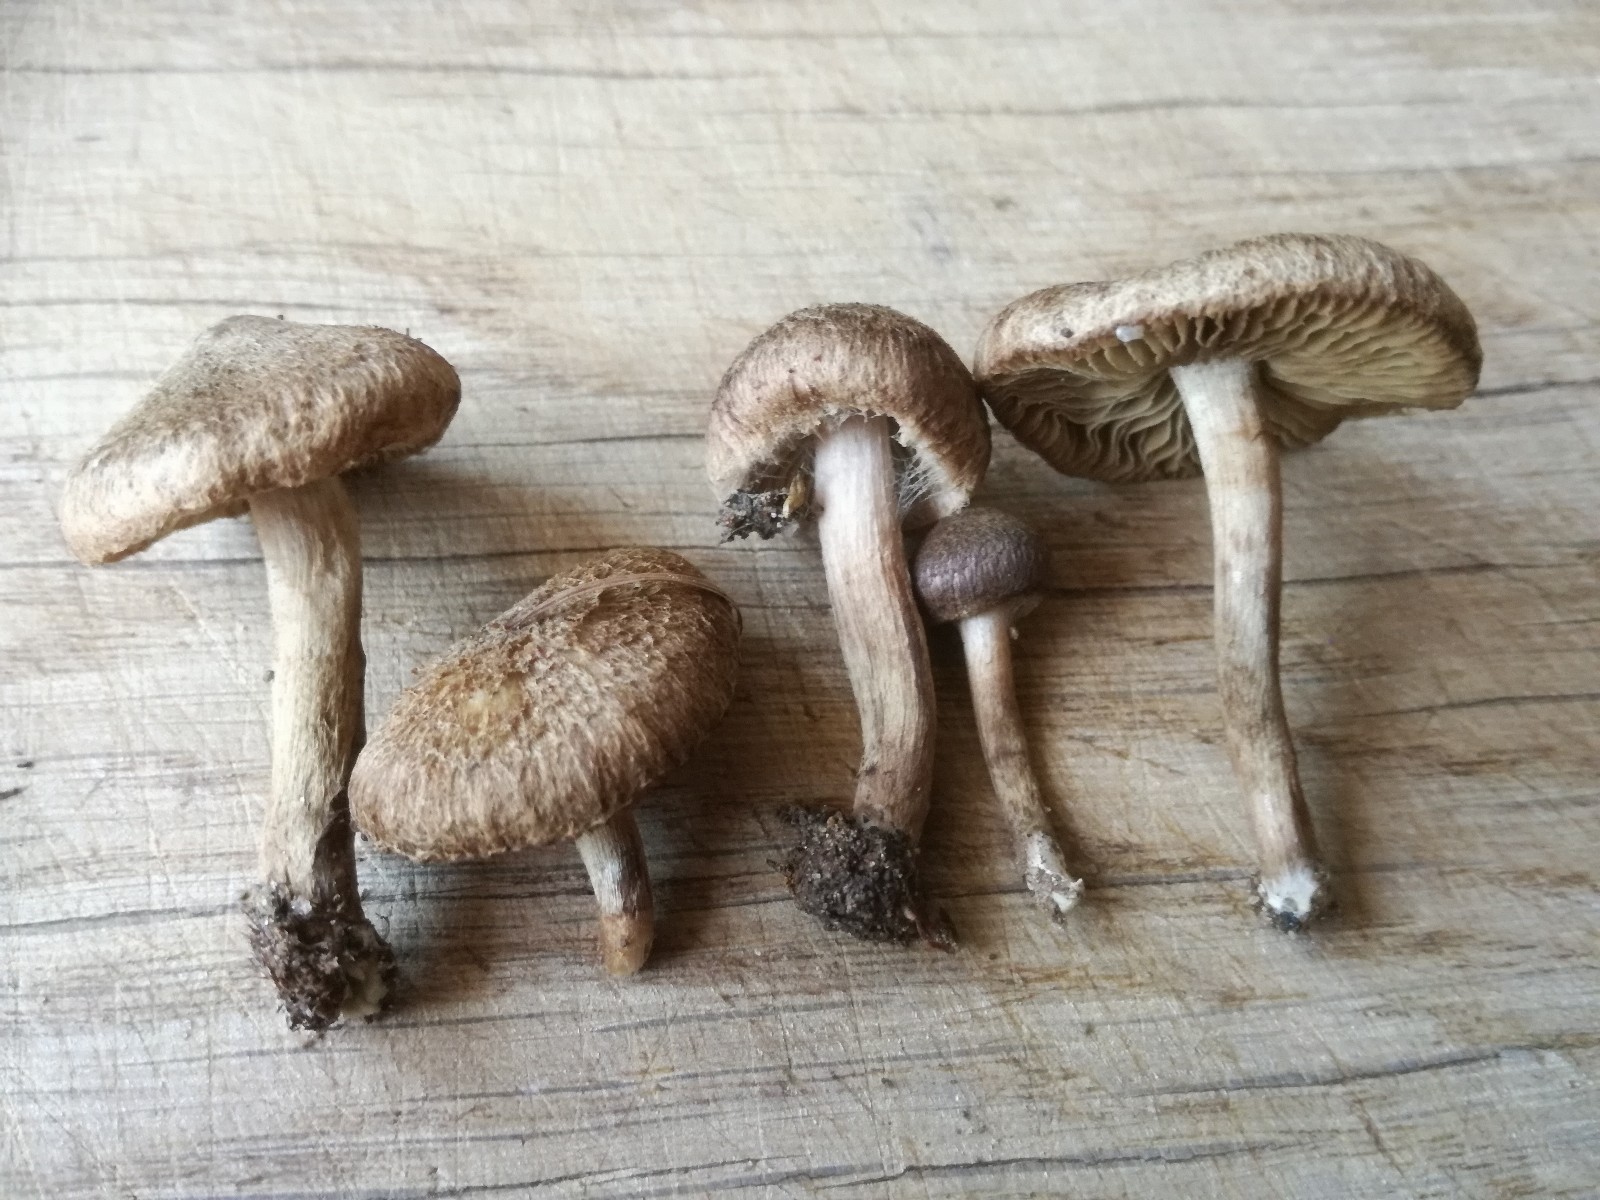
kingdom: Fungi
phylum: Basidiomycota
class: Agaricomycetes
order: Agaricales
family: Inocybaceae
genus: Inocybe
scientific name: Inocybe lacera
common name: laset trævlhat
